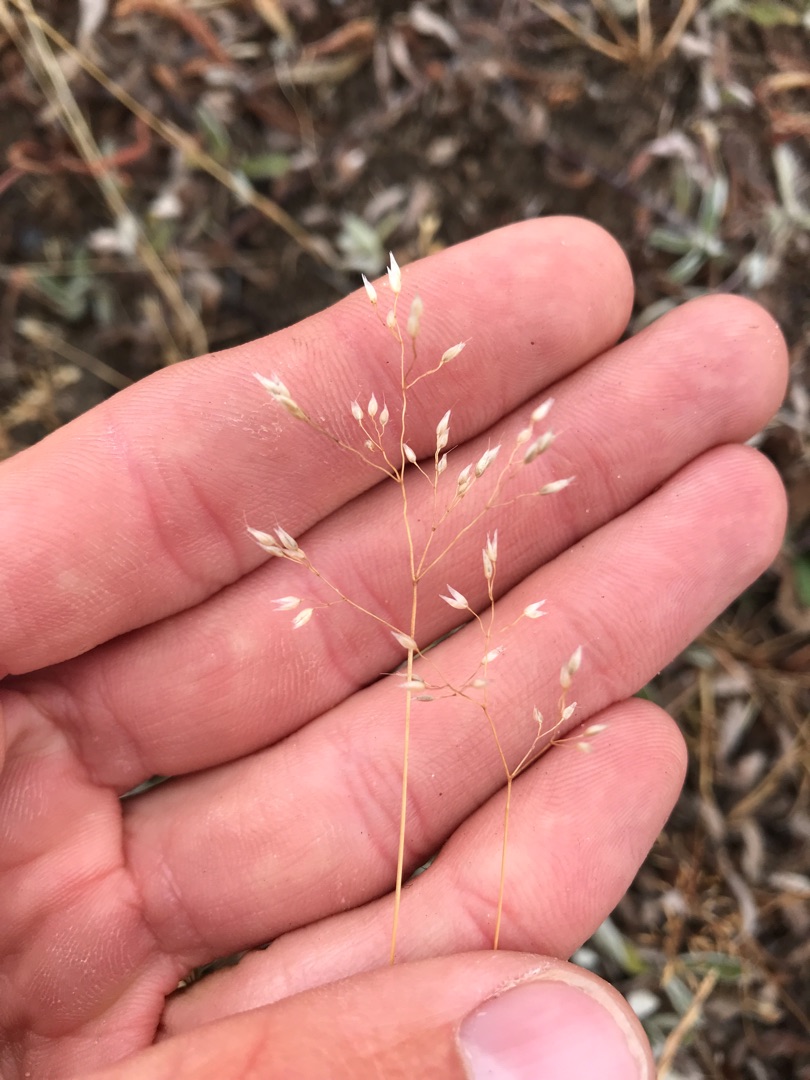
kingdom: Plantae
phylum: Tracheophyta
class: Liliopsida
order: Poales
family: Poaceae
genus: Aira
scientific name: Aira caryophyllea
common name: Udspærret dværgbunke
